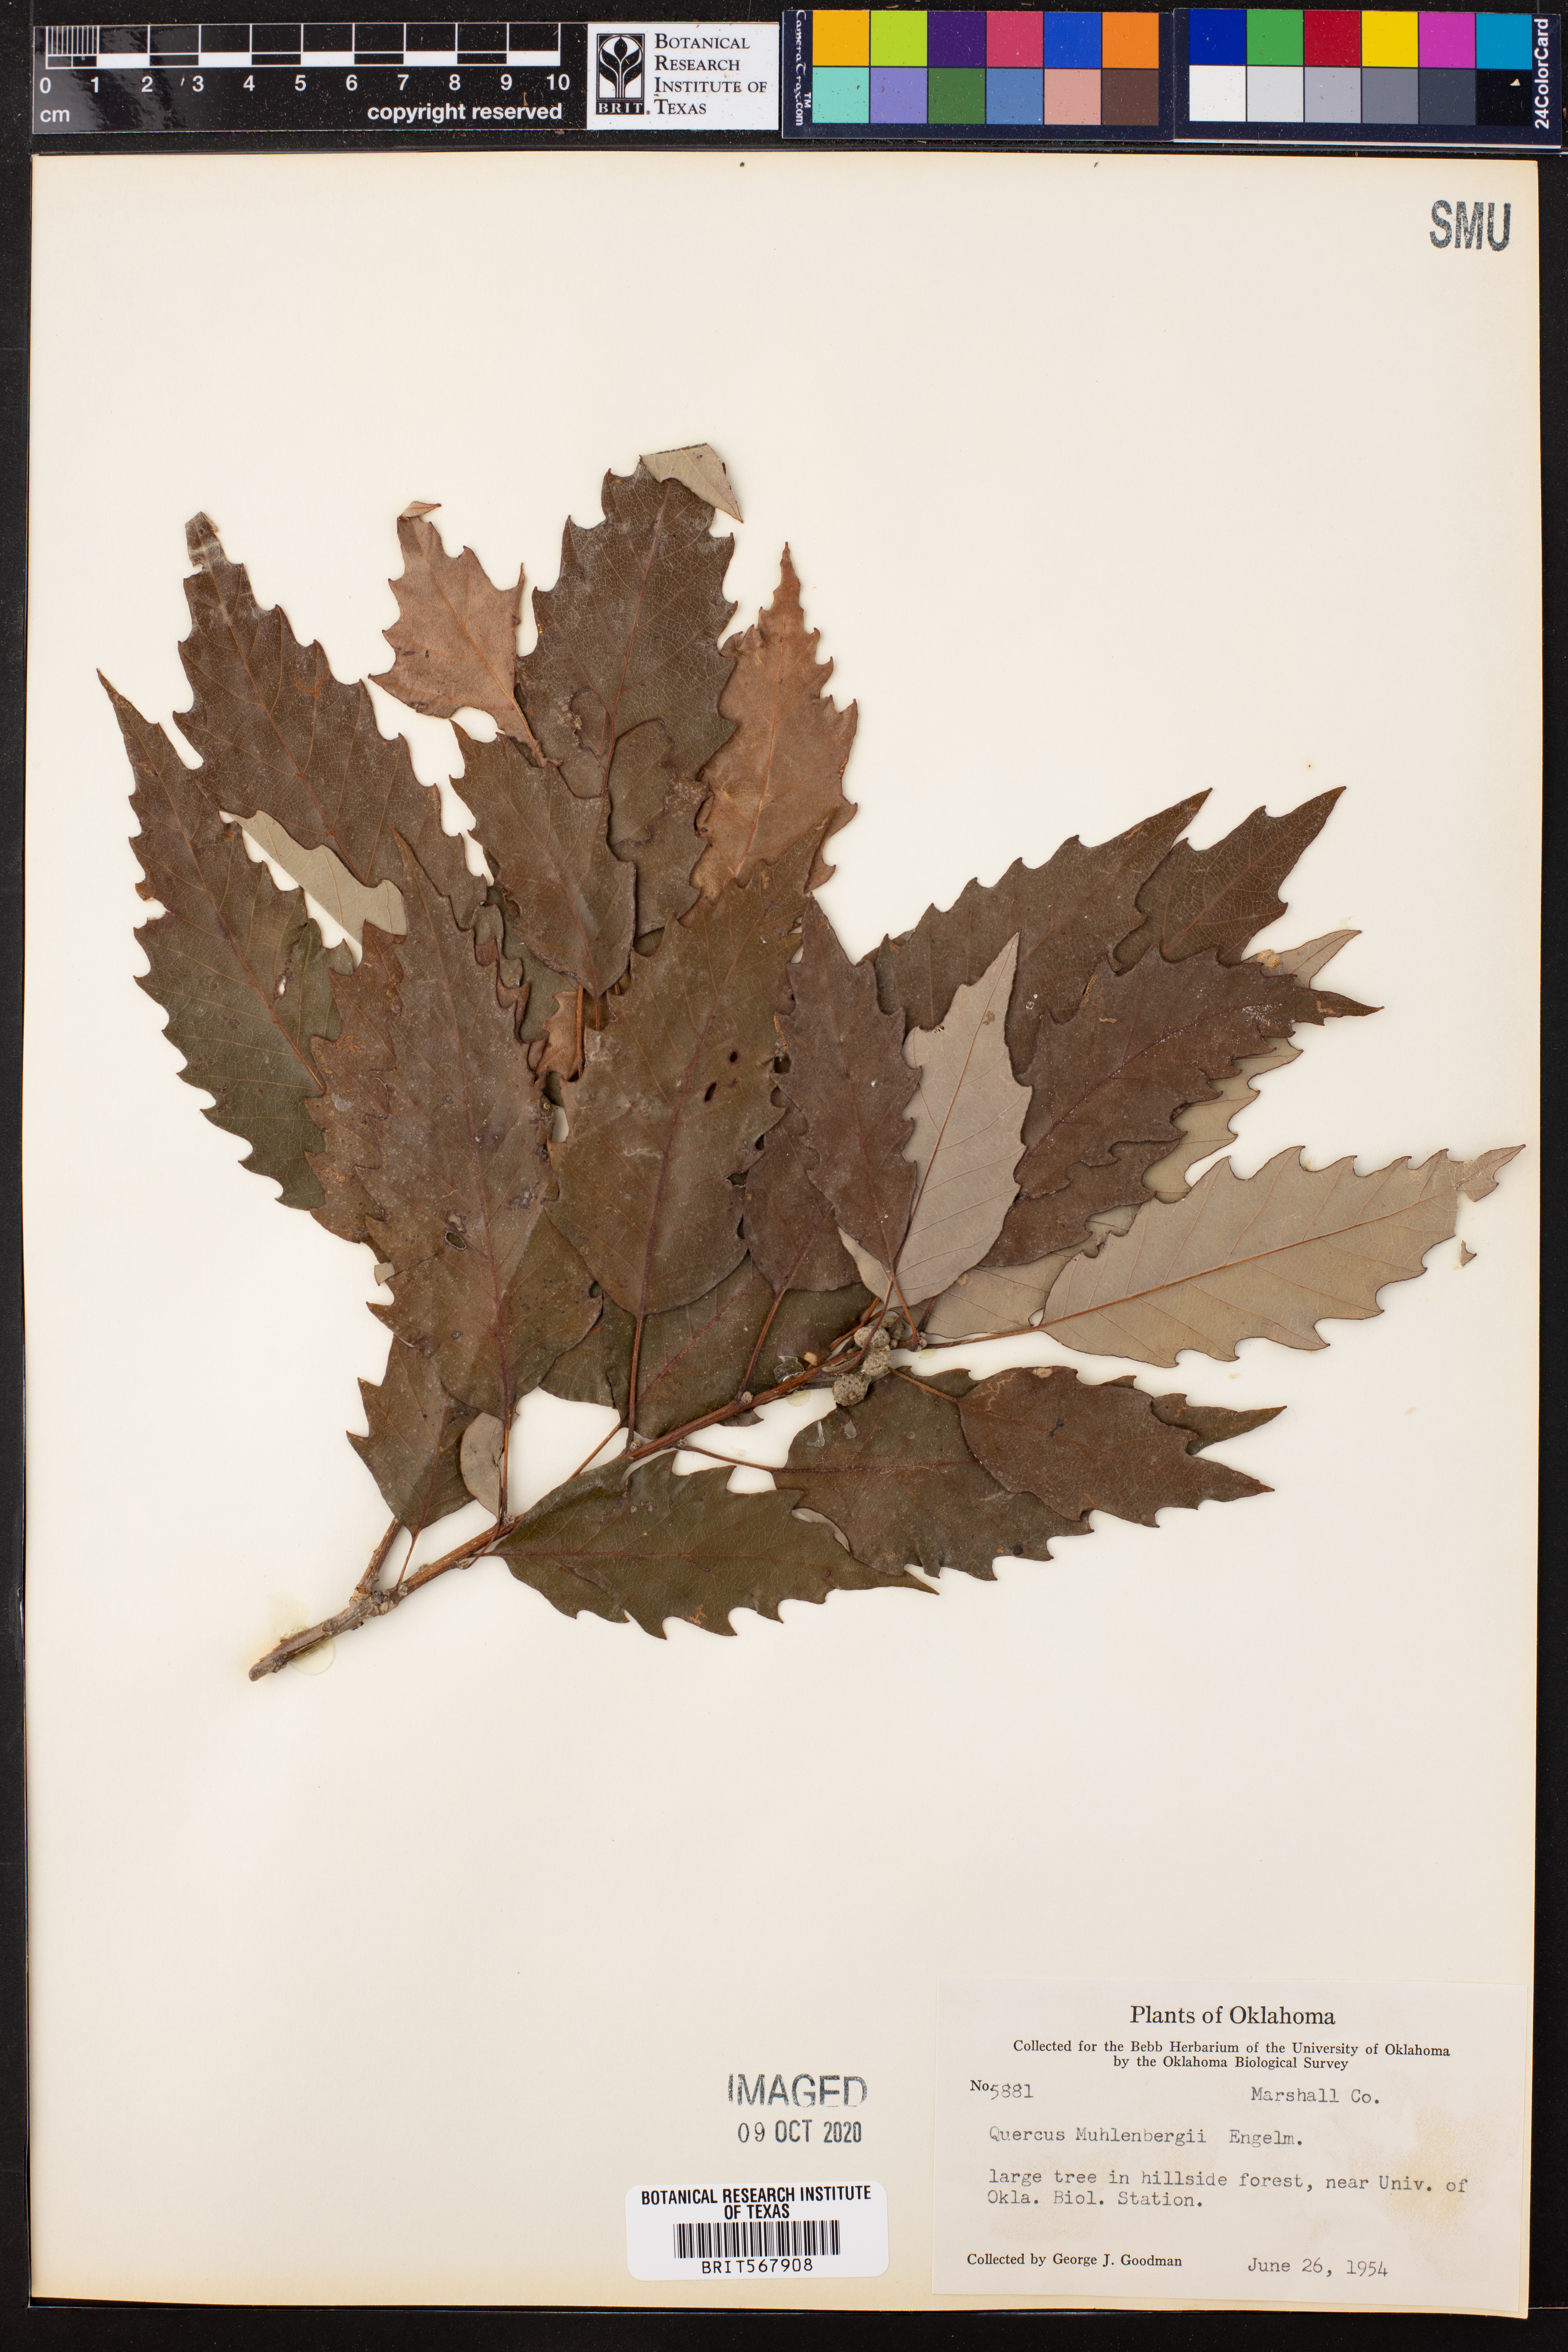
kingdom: Plantae
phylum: Tracheophyta
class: Magnoliopsida
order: Fagales
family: Fagaceae
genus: Quercus
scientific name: Quercus muehlenbergii
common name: Chinkapin oak
